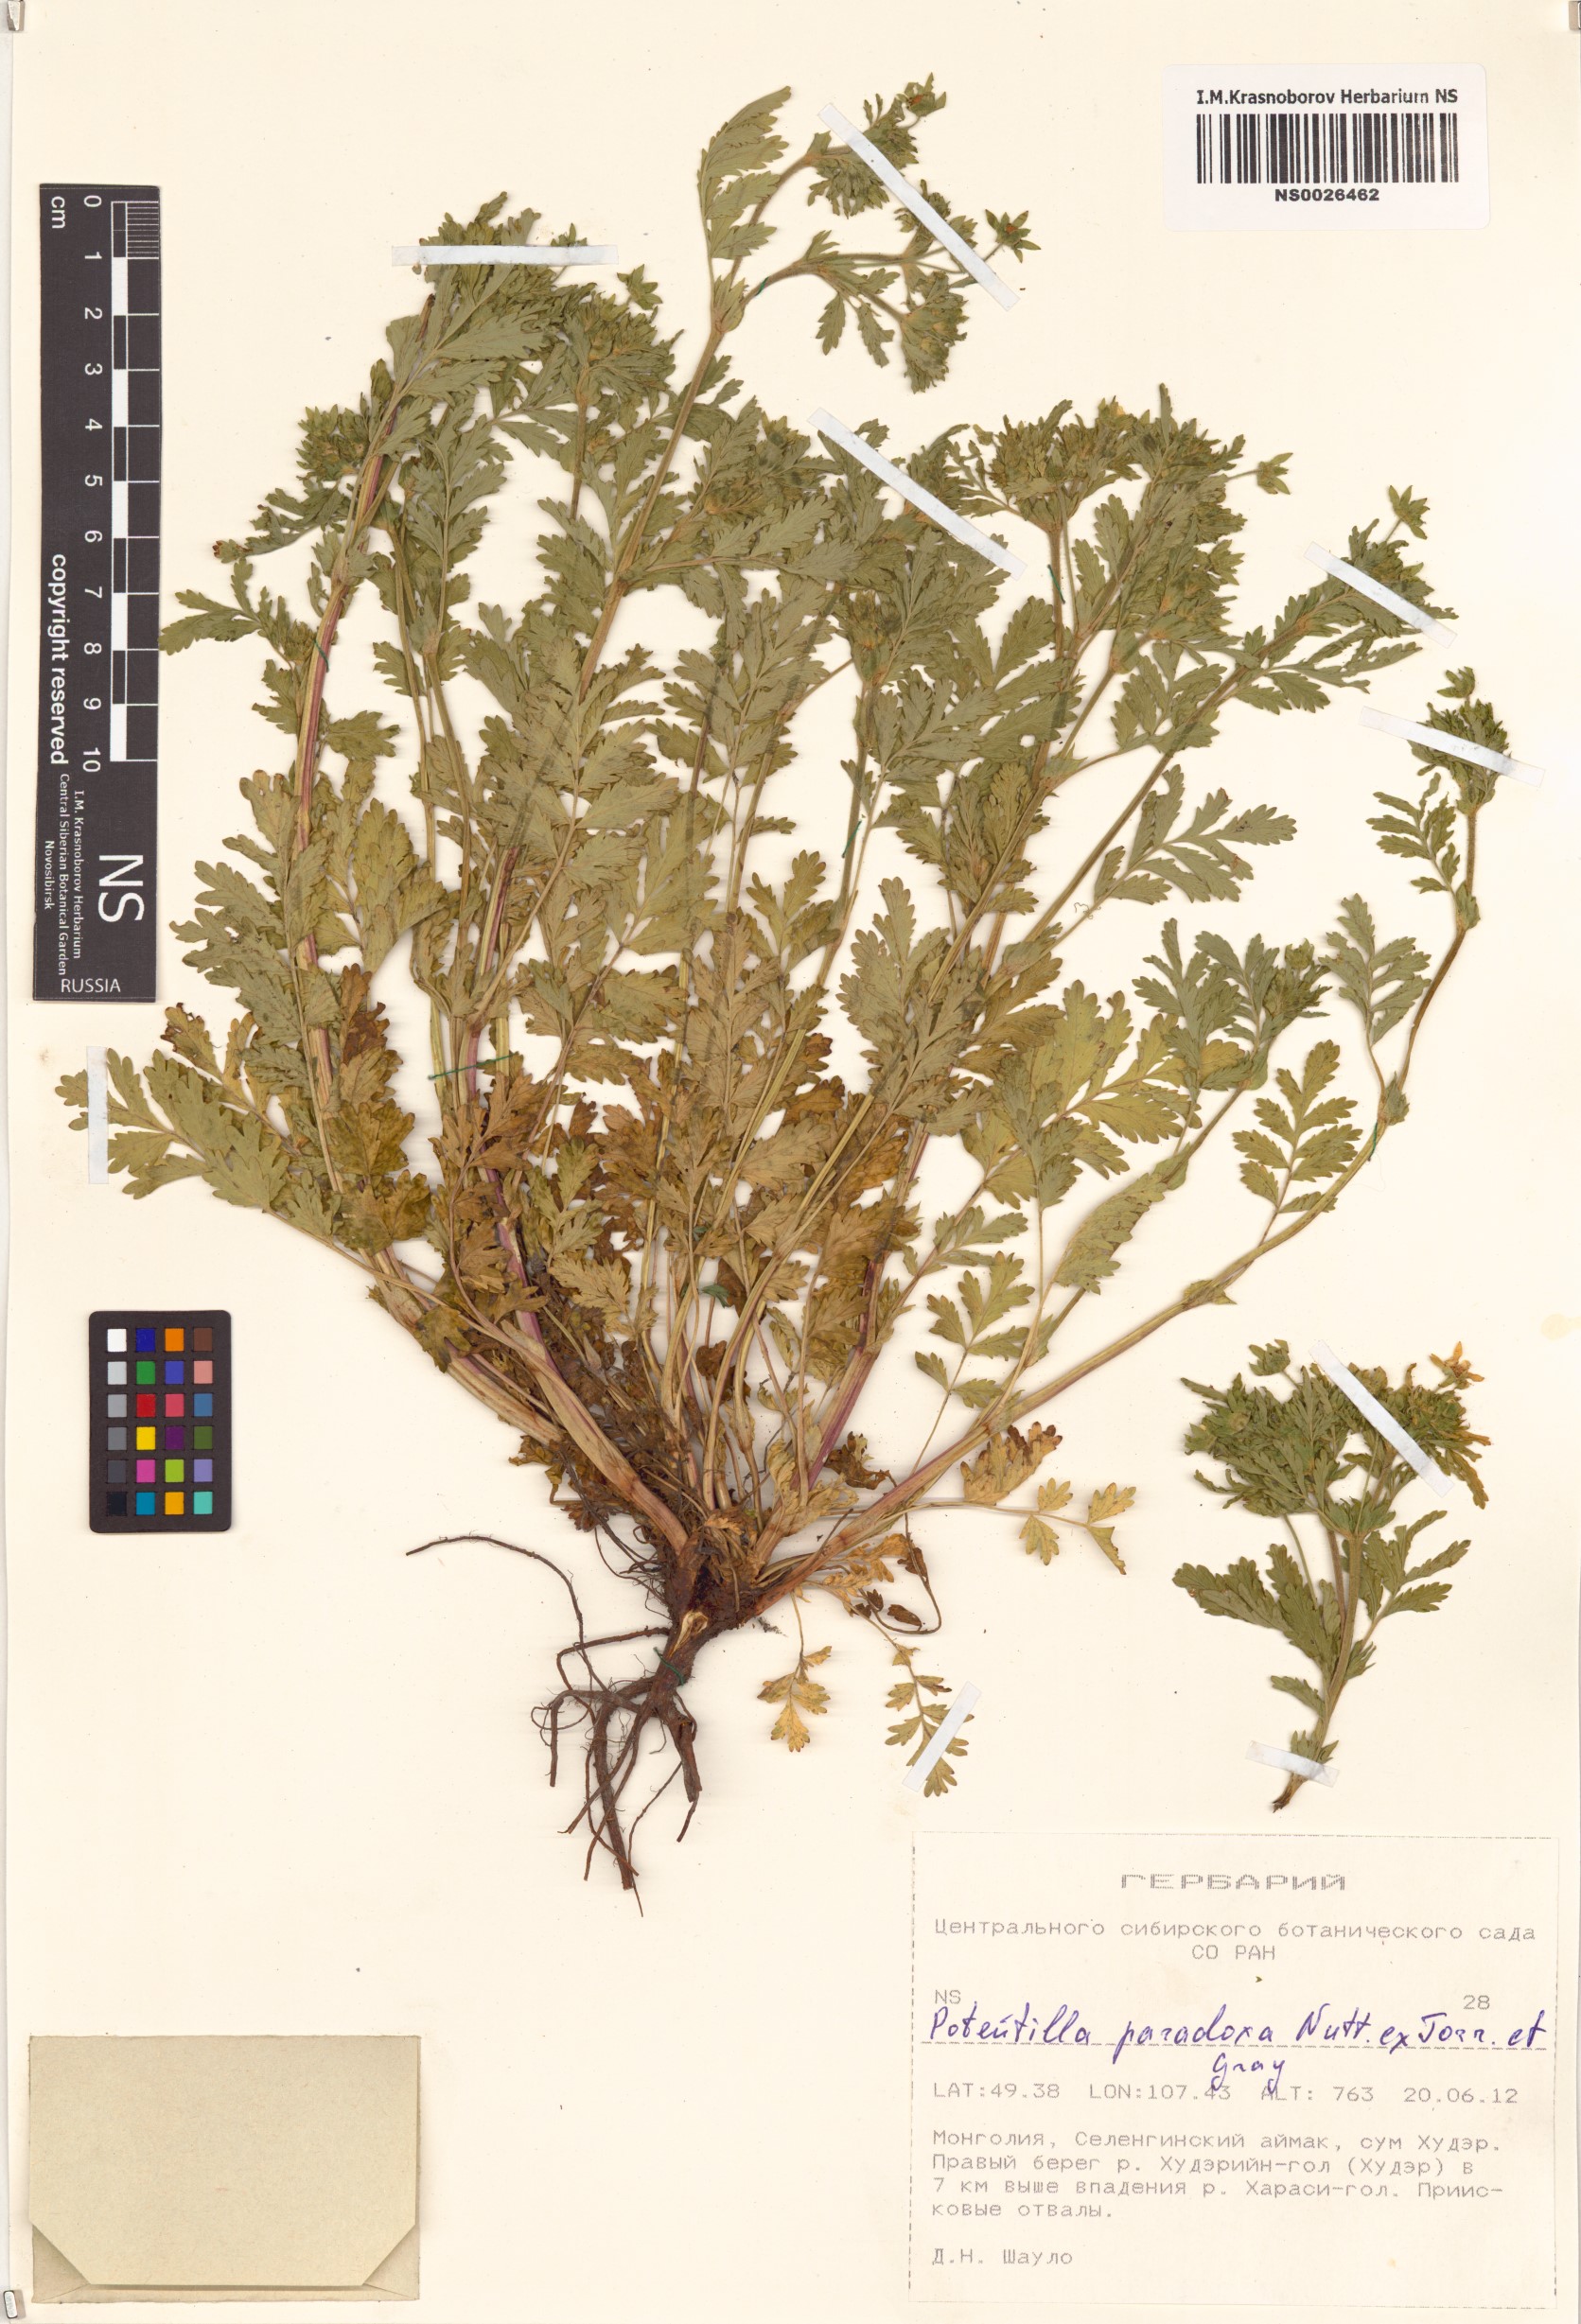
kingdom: Plantae
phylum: Tracheophyta
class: Magnoliopsida
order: Rosales
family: Rosaceae
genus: Potentilla
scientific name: Potentilla supina
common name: Prostrate cinquefoil
